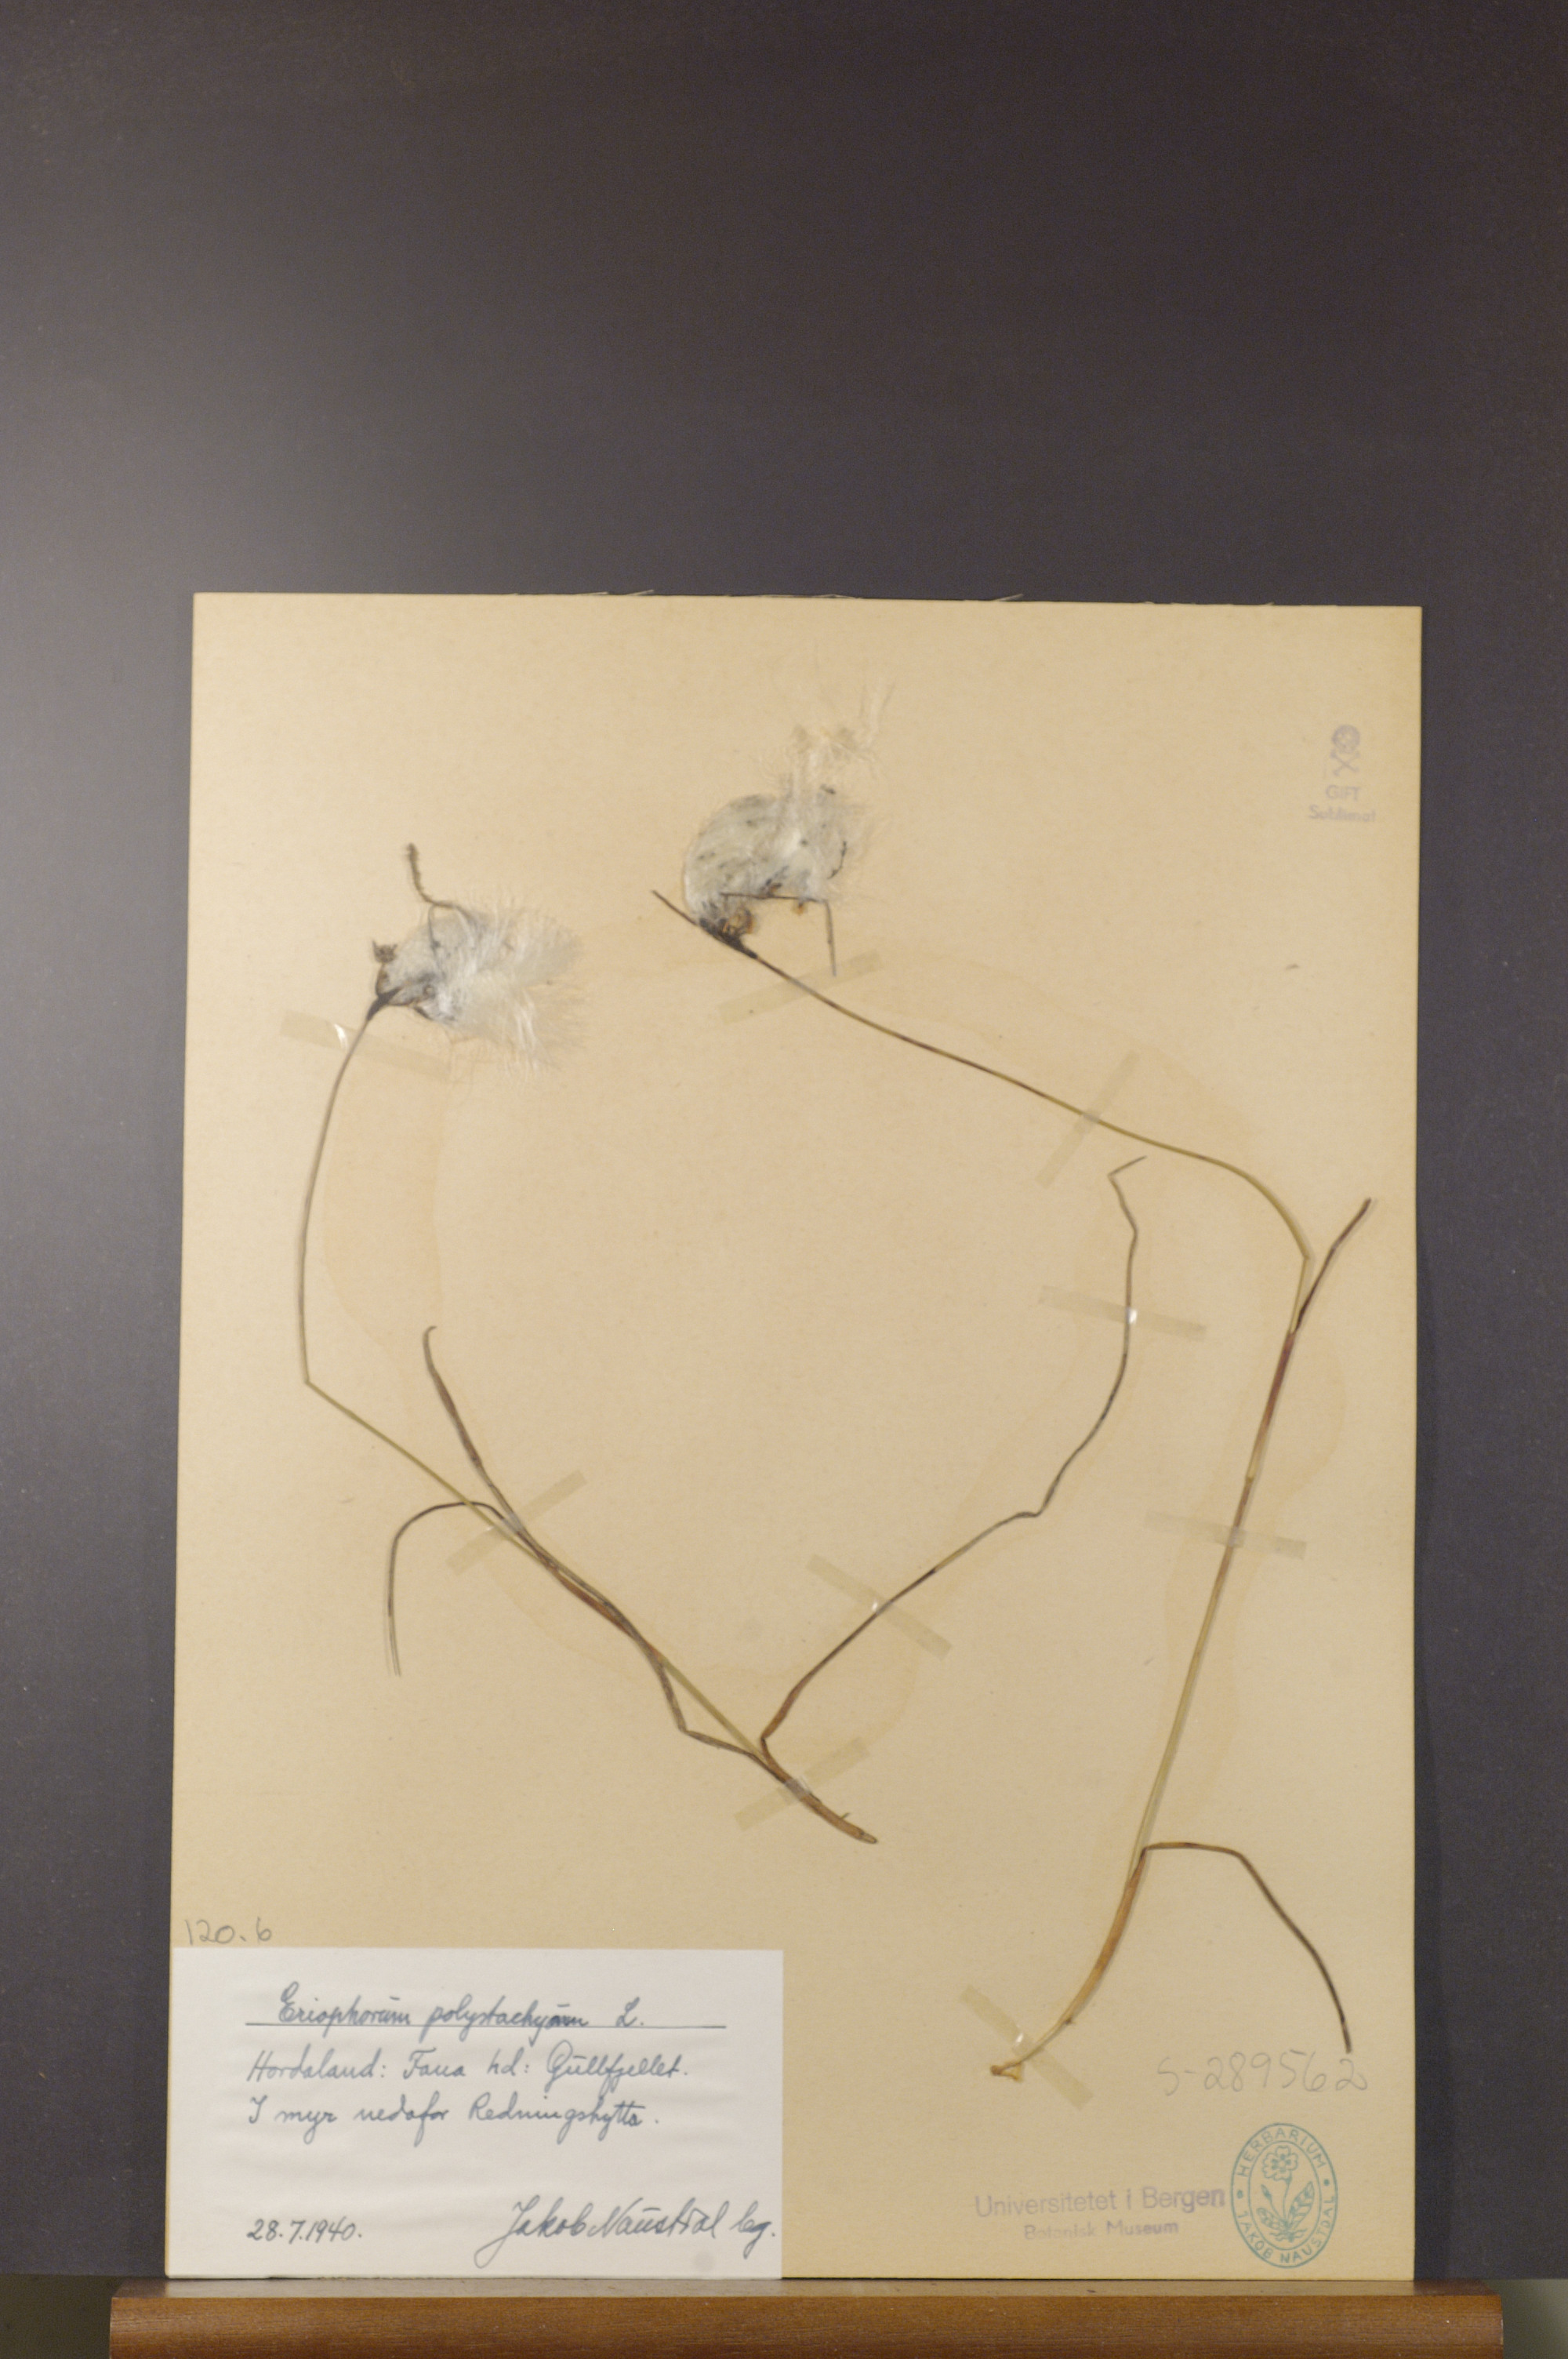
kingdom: Plantae
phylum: Tracheophyta
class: Liliopsida
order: Poales
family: Cyperaceae
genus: Eriophorum
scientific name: Eriophorum angustifolium
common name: Common cottongrass
